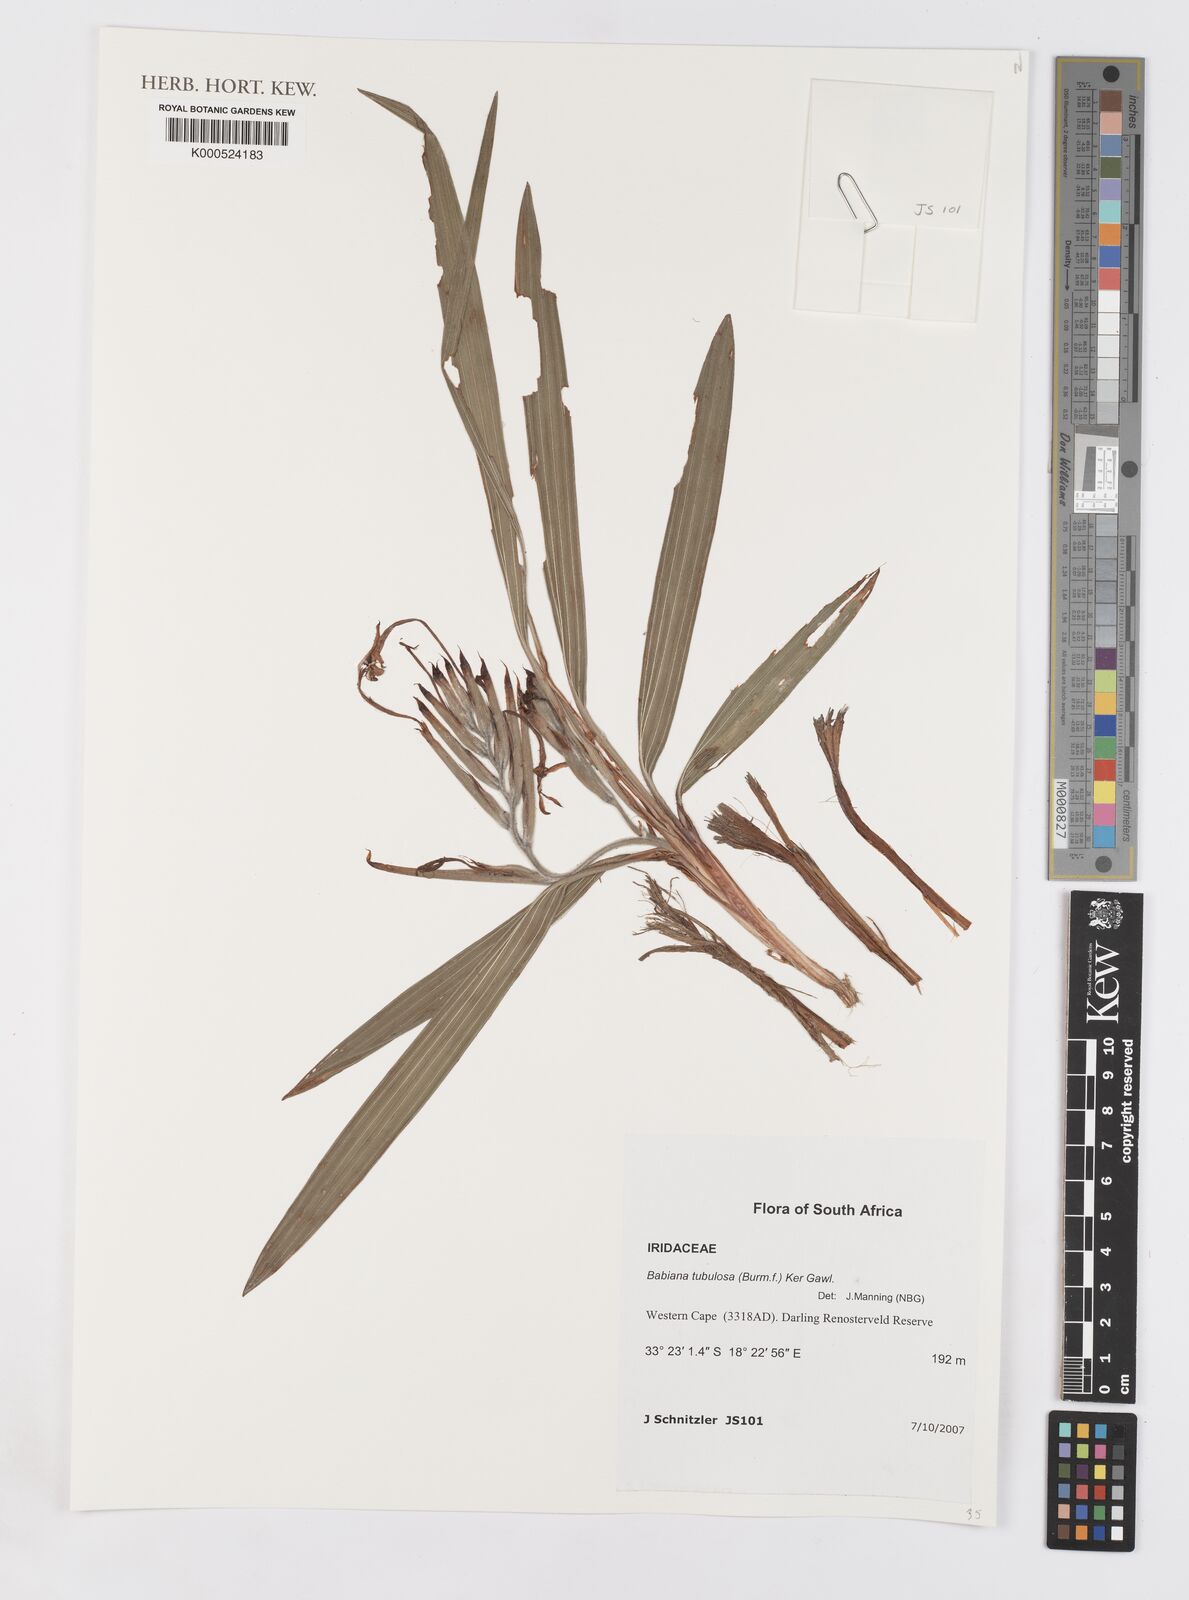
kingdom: Plantae
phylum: Tracheophyta
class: Liliopsida
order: Asparagales
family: Iridaceae
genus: Babiana
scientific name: Babiana tubulosa
